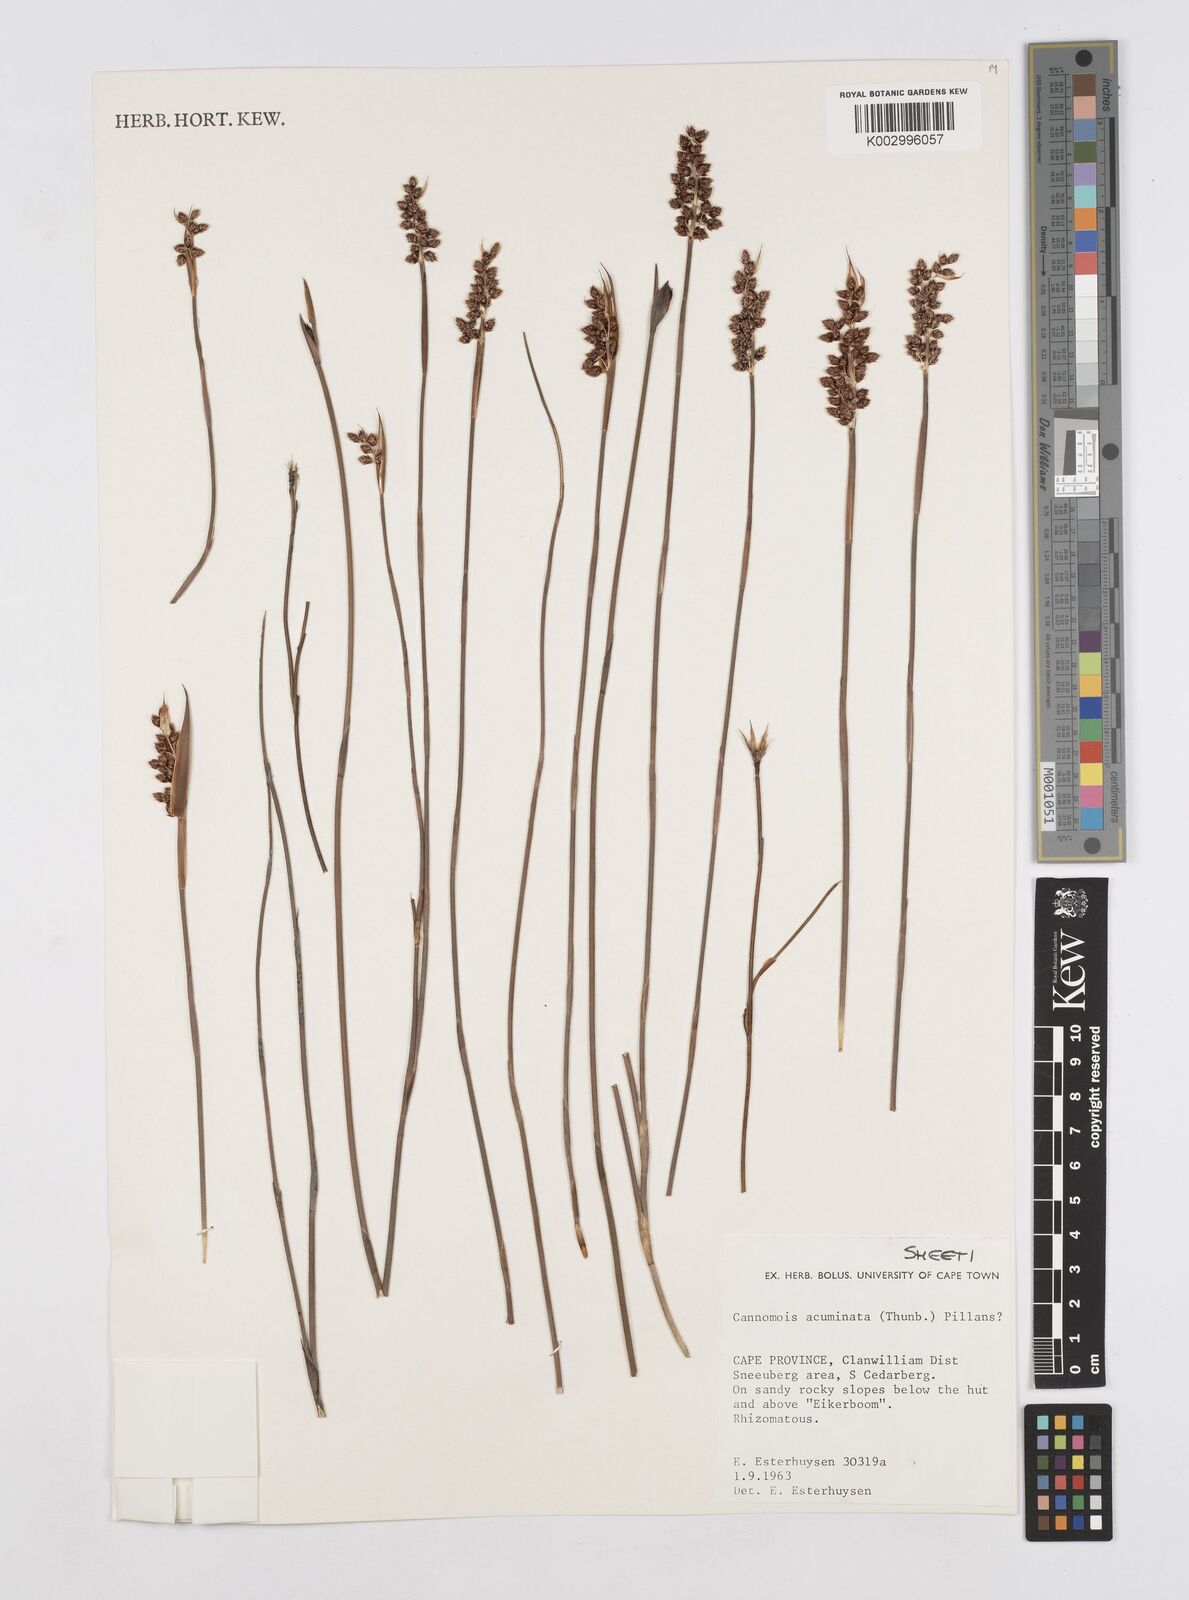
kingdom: Plantae
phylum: Tracheophyta
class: Liliopsida
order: Poales
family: Restionaceae
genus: Cannomois
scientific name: Cannomois parviflora
